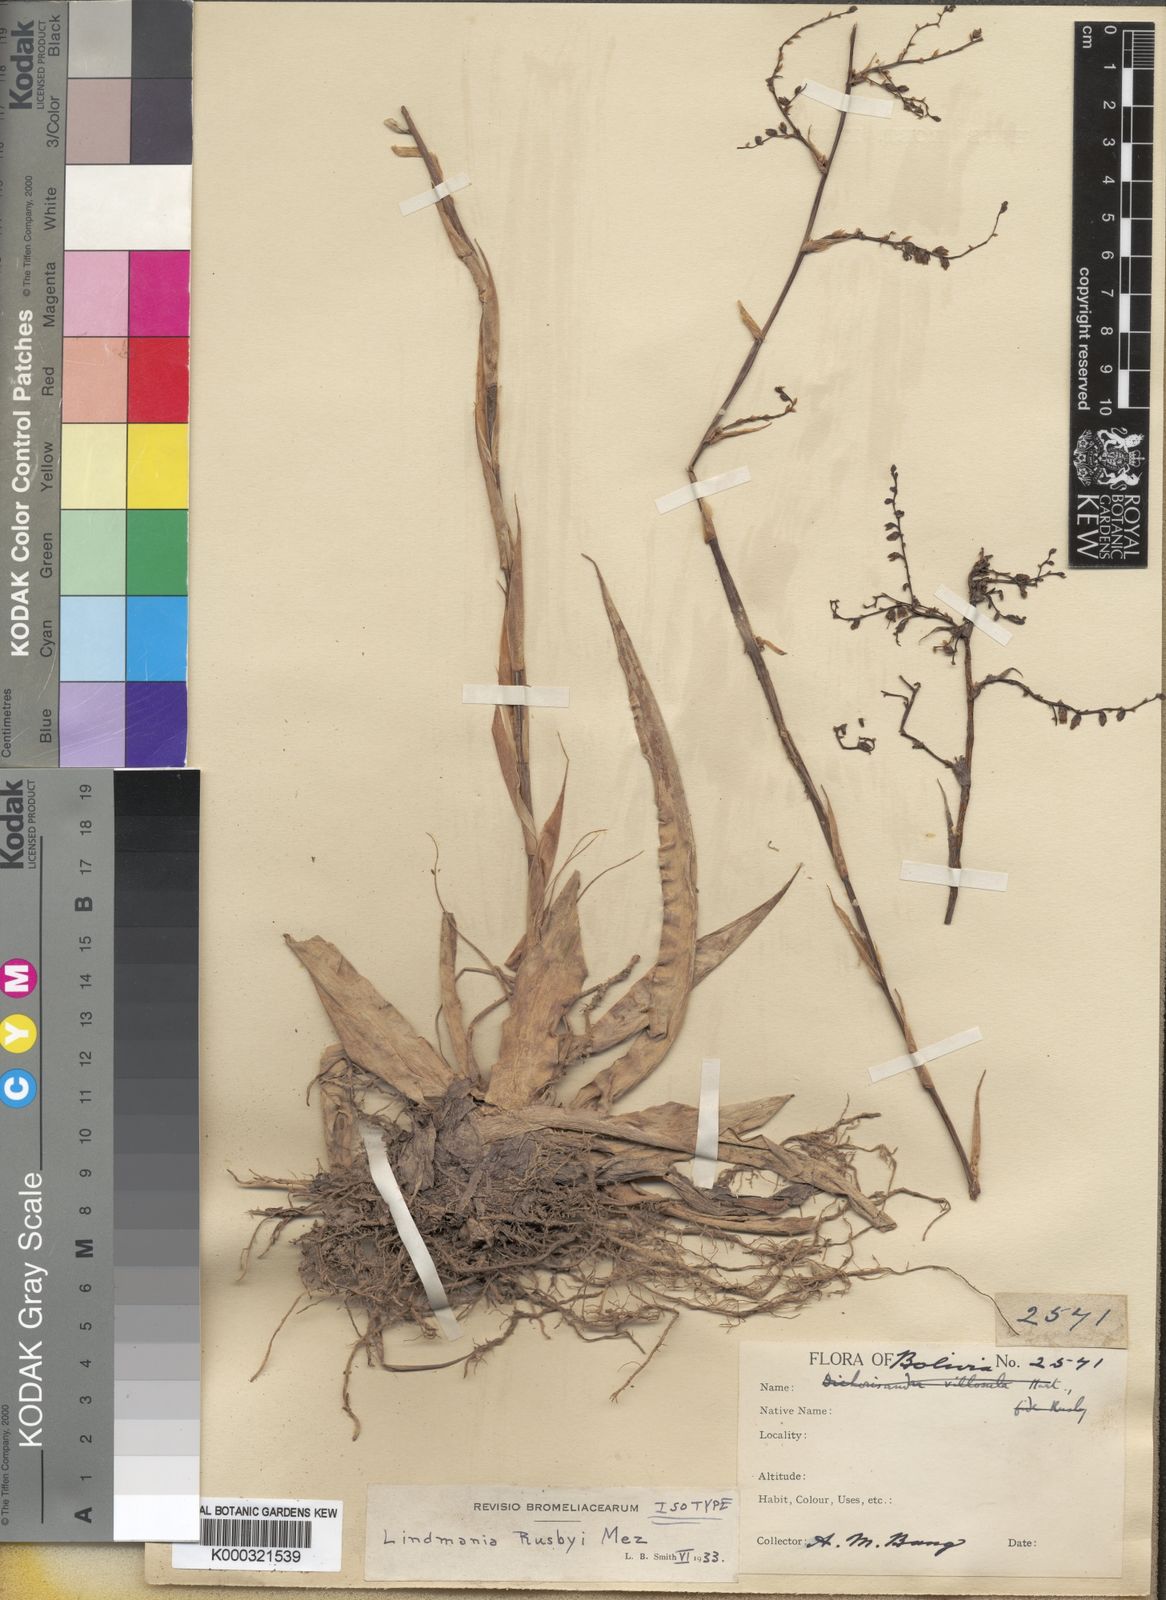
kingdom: Plantae
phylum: Tracheophyta
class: Liliopsida
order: Poales
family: Bromeliaceae
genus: Fosterella
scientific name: Fosterella rusbyi
